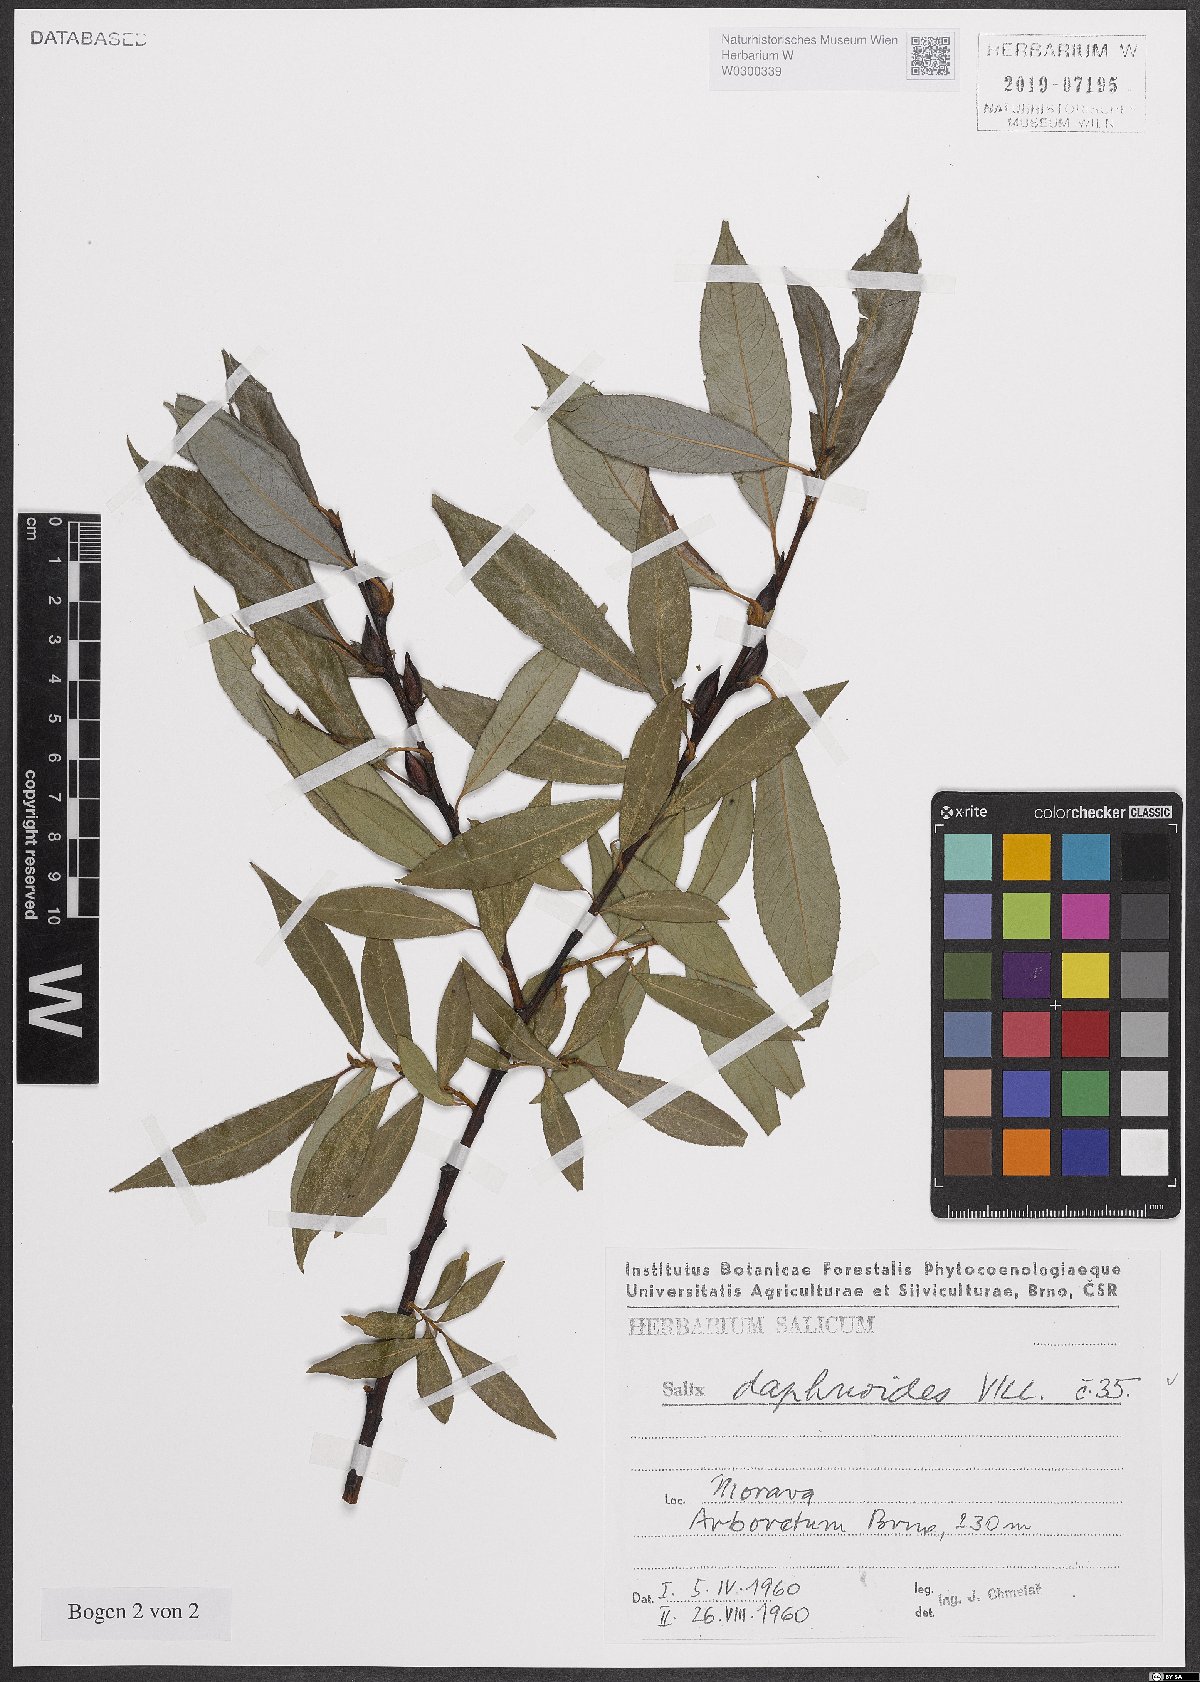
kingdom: Plantae
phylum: Tracheophyta
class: Magnoliopsida
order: Malpighiales
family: Salicaceae
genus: Salix
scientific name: Salix daphnoides
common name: European violet-willow
